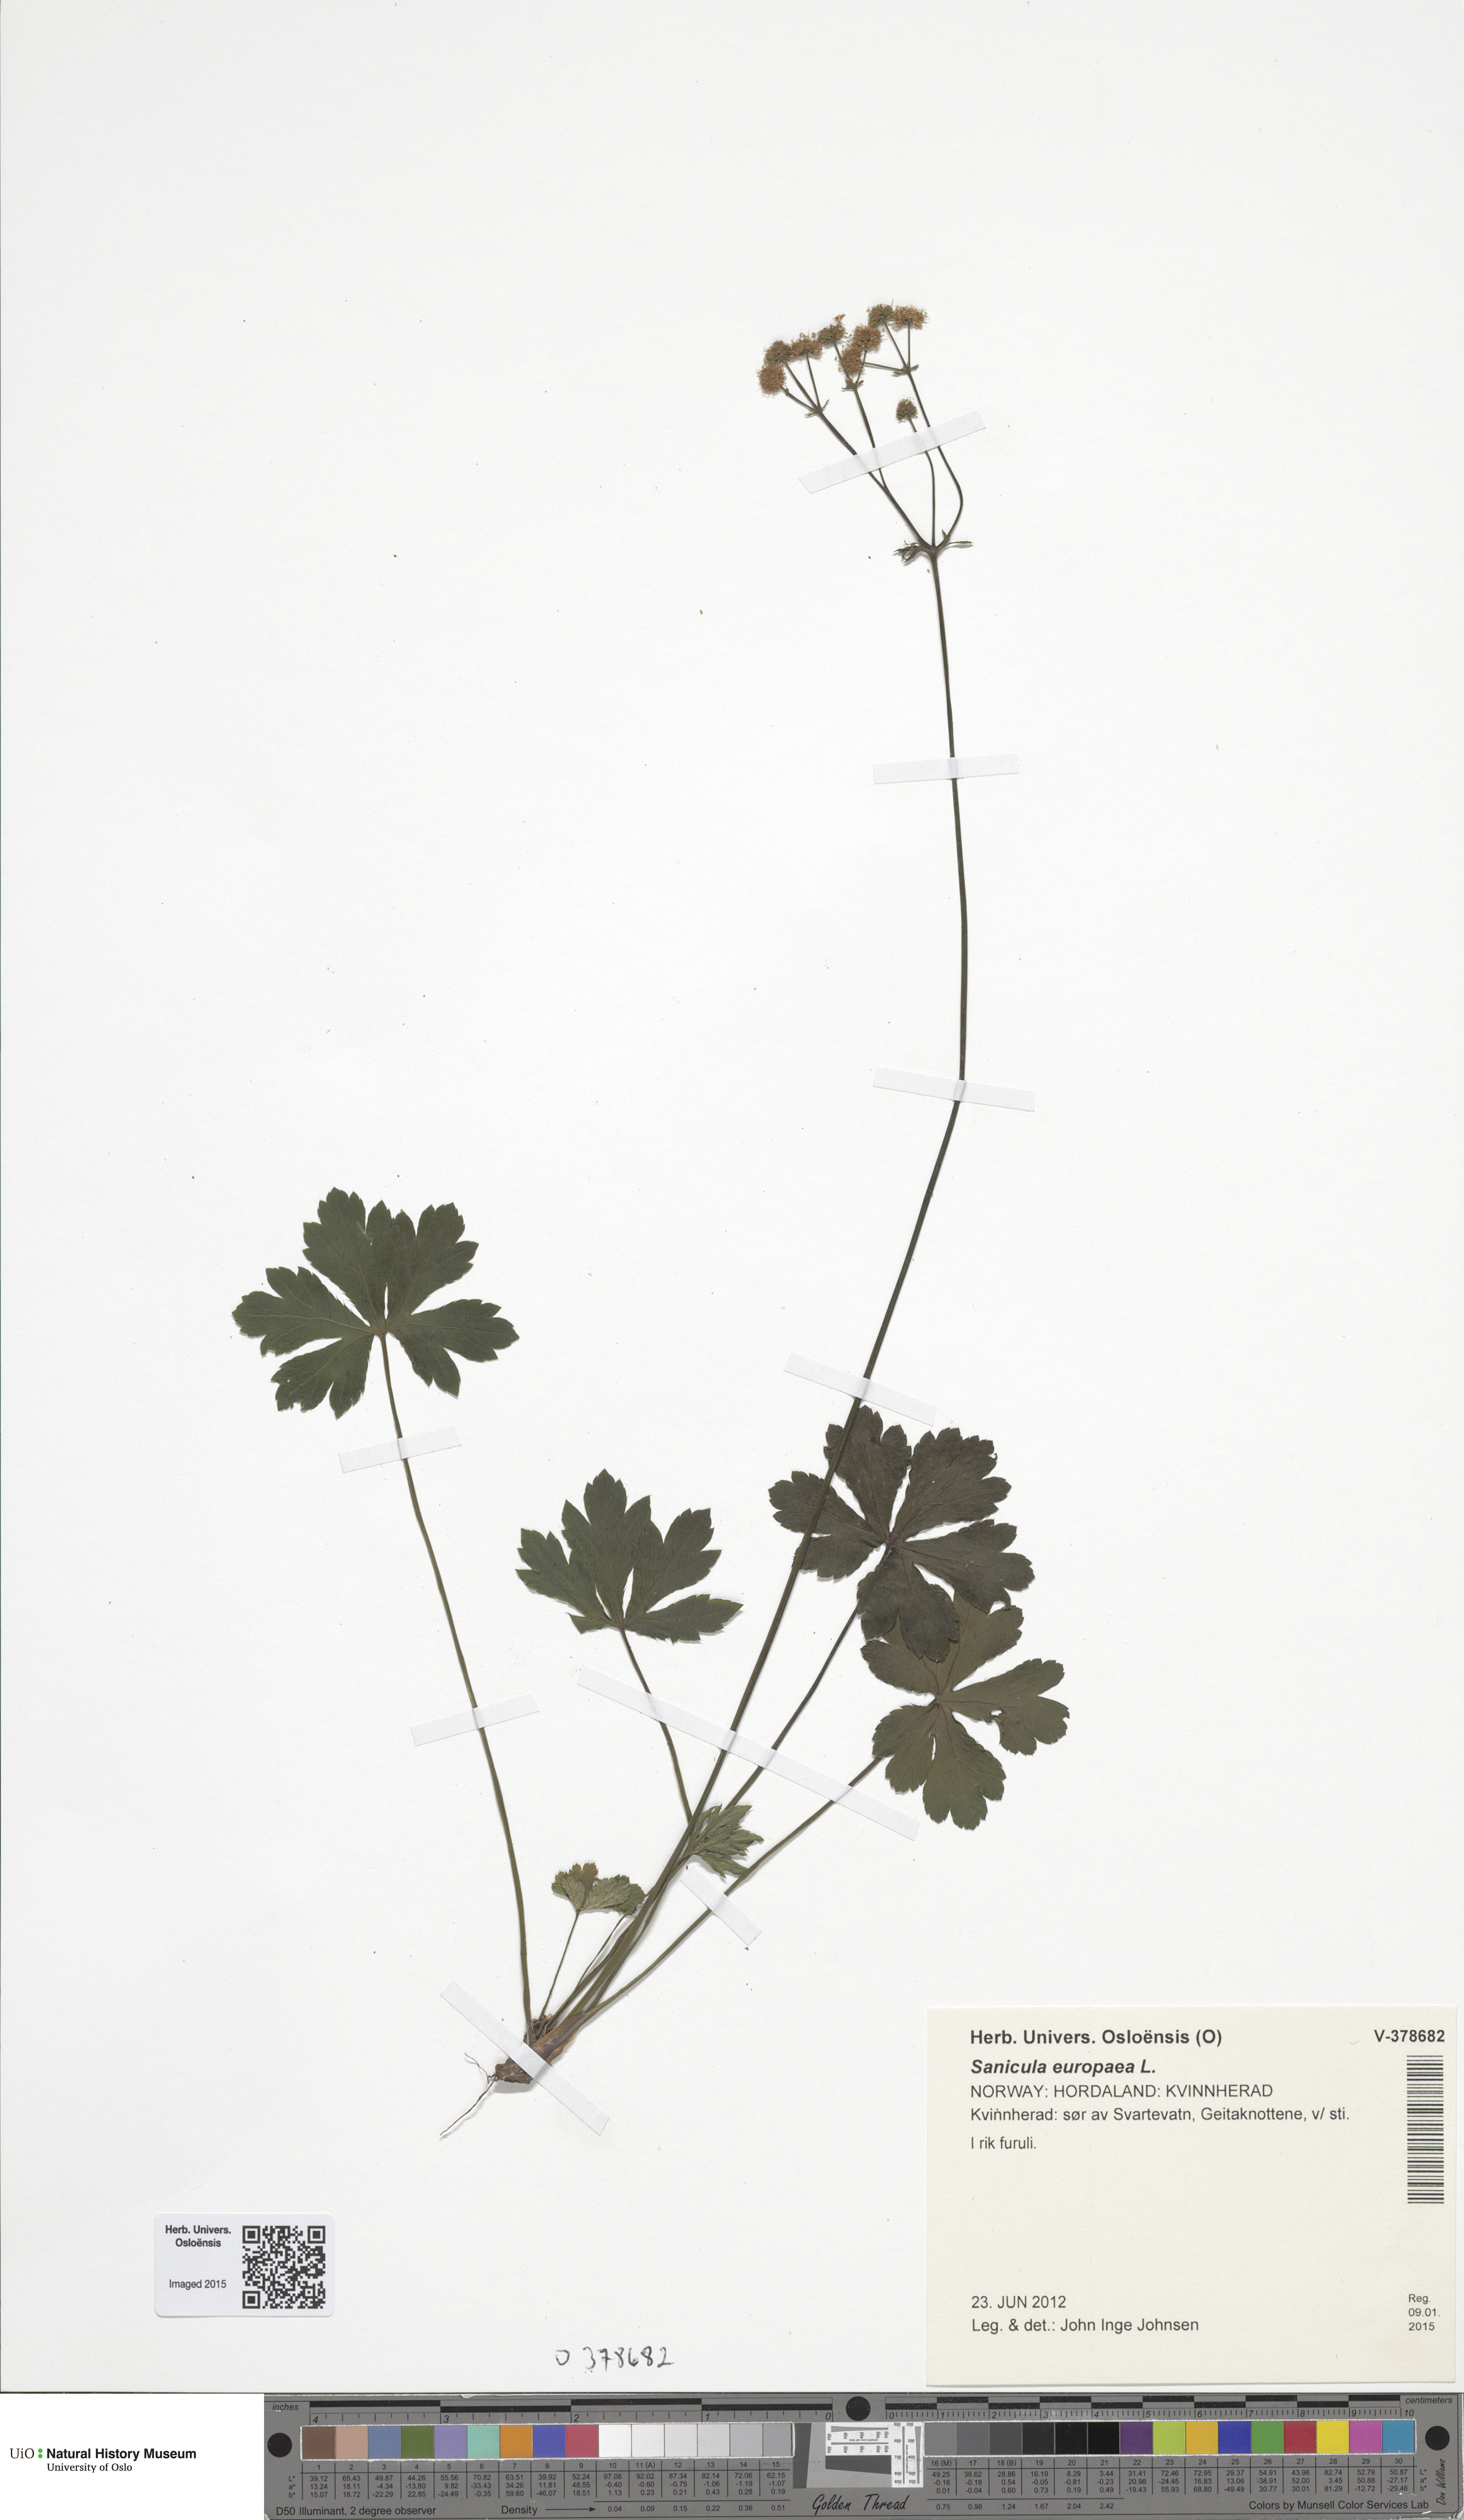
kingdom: Plantae
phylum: Tracheophyta
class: Magnoliopsida
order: Apiales
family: Apiaceae
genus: Sanicula
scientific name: Sanicula europaea
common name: Sanicle
